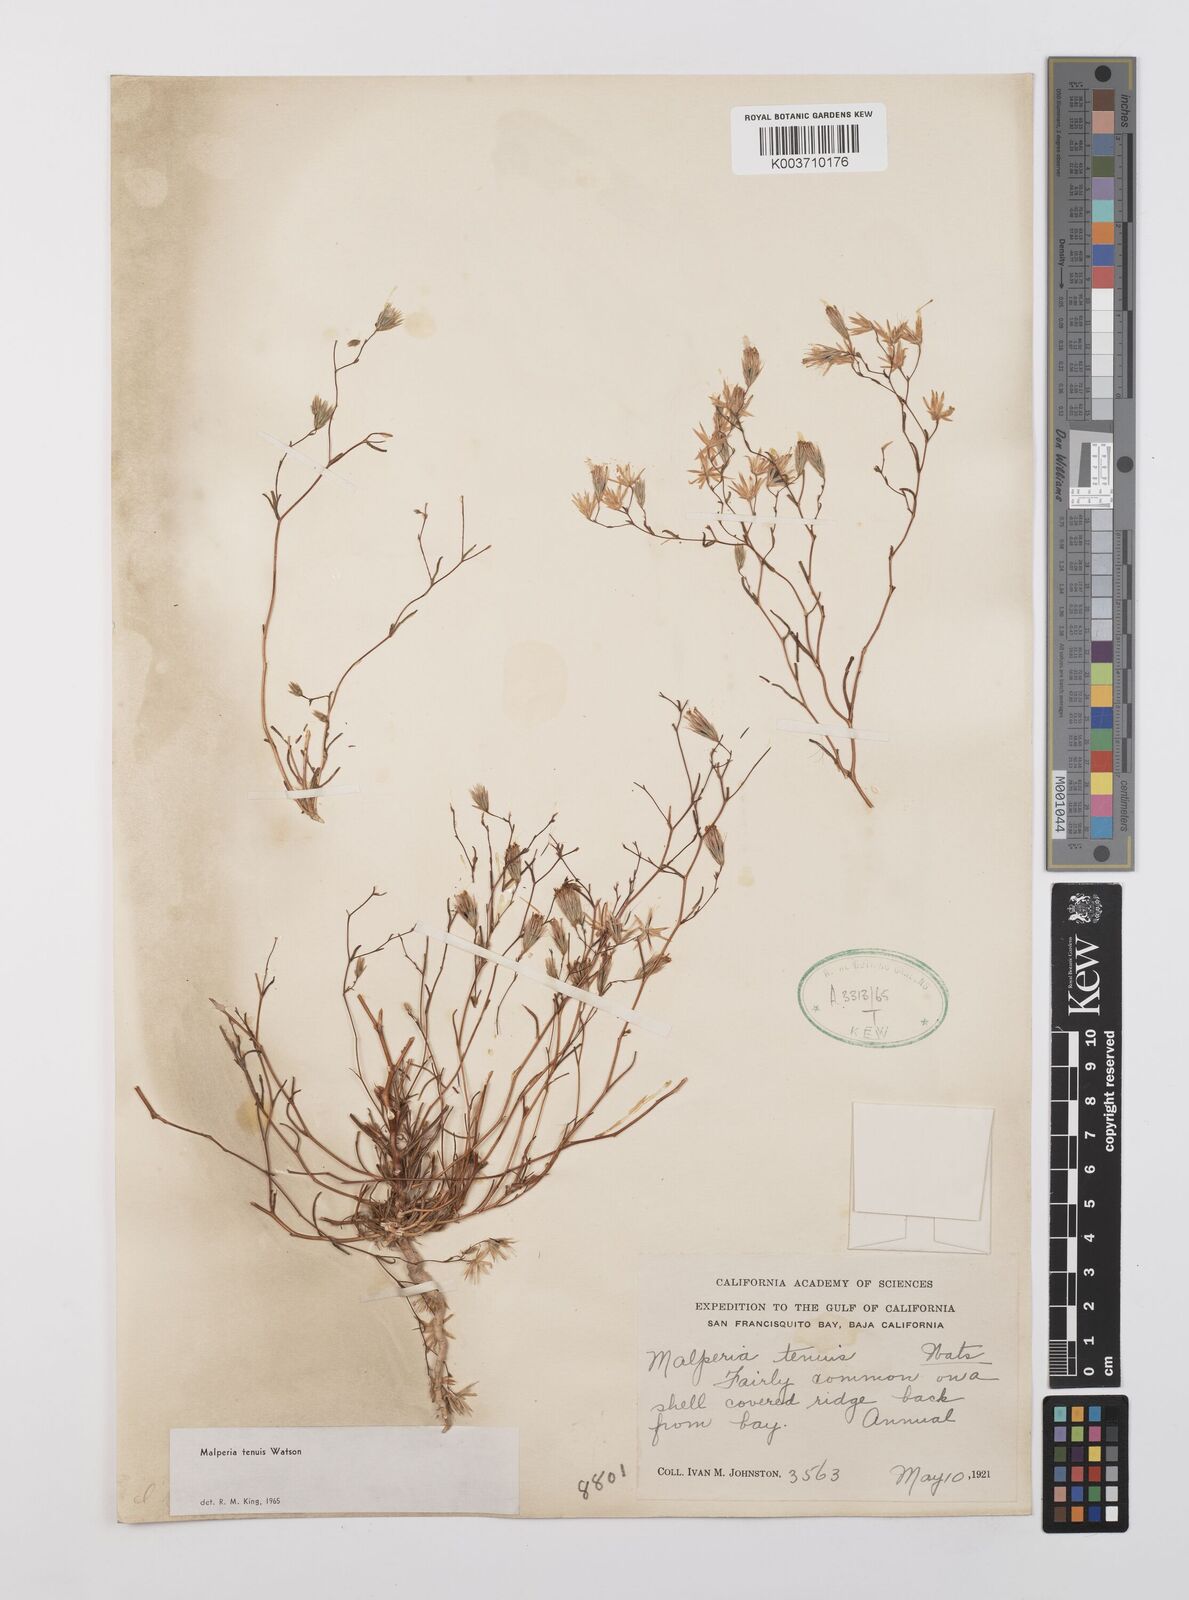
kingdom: Plantae
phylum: Tracheophyta
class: Magnoliopsida
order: Asterales
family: Asteraceae
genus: Malperia
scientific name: Malperia tenuis
